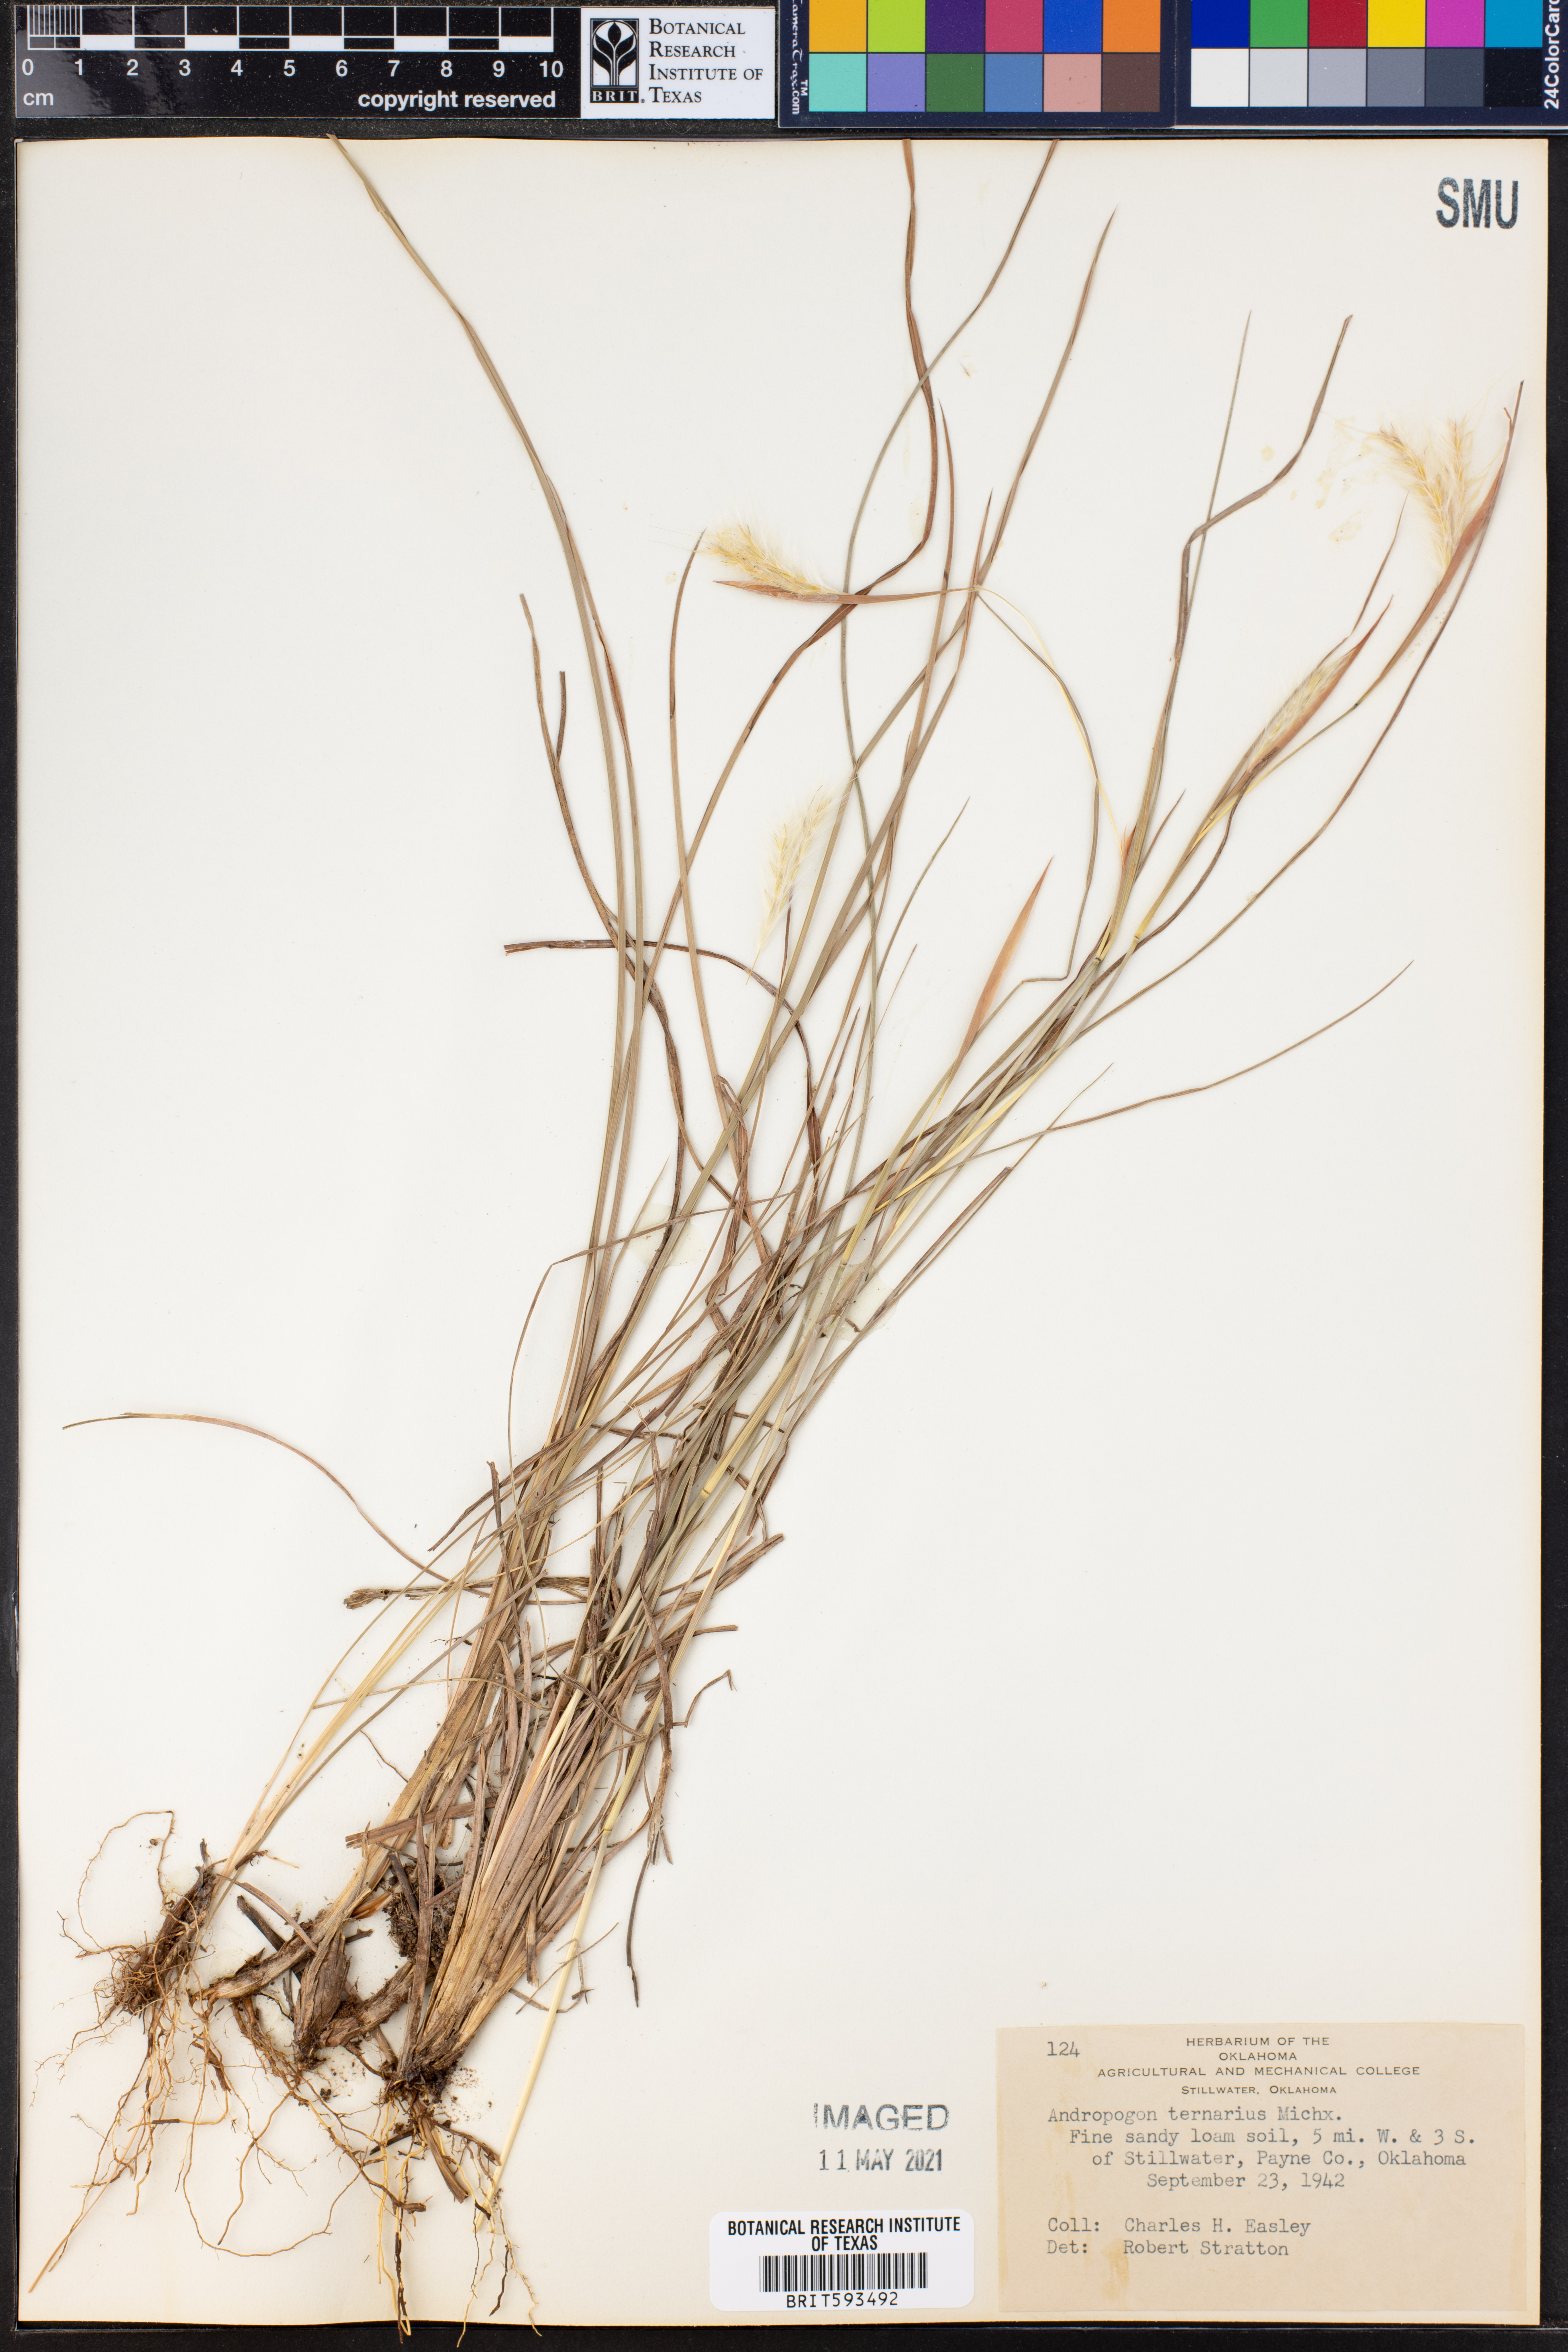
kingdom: Plantae
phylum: Tracheophyta
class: Liliopsida
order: Poales
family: Poaceae
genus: Andropogon
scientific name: Andropogon ternarius
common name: Split bluestem
